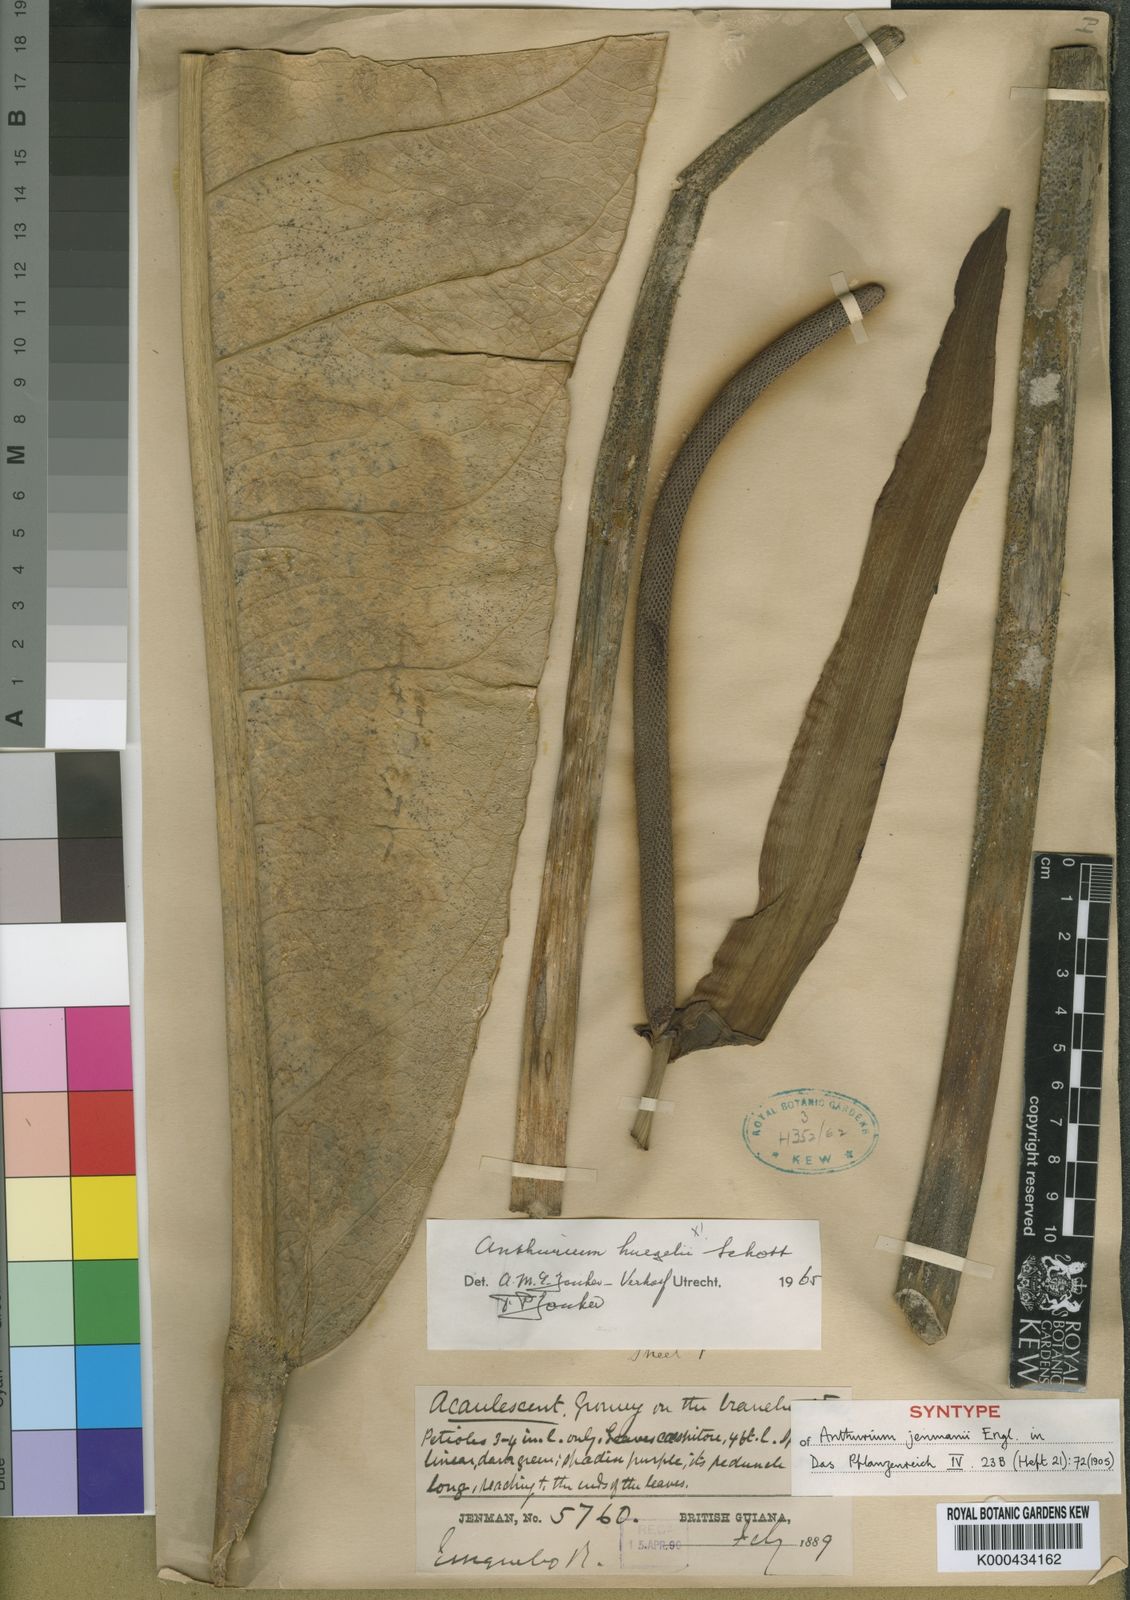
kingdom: Plantae
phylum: Tracheophyta
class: Liliopsida
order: Alismatales
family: Araceae
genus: Anthurium
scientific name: Anthurium jenmanii
